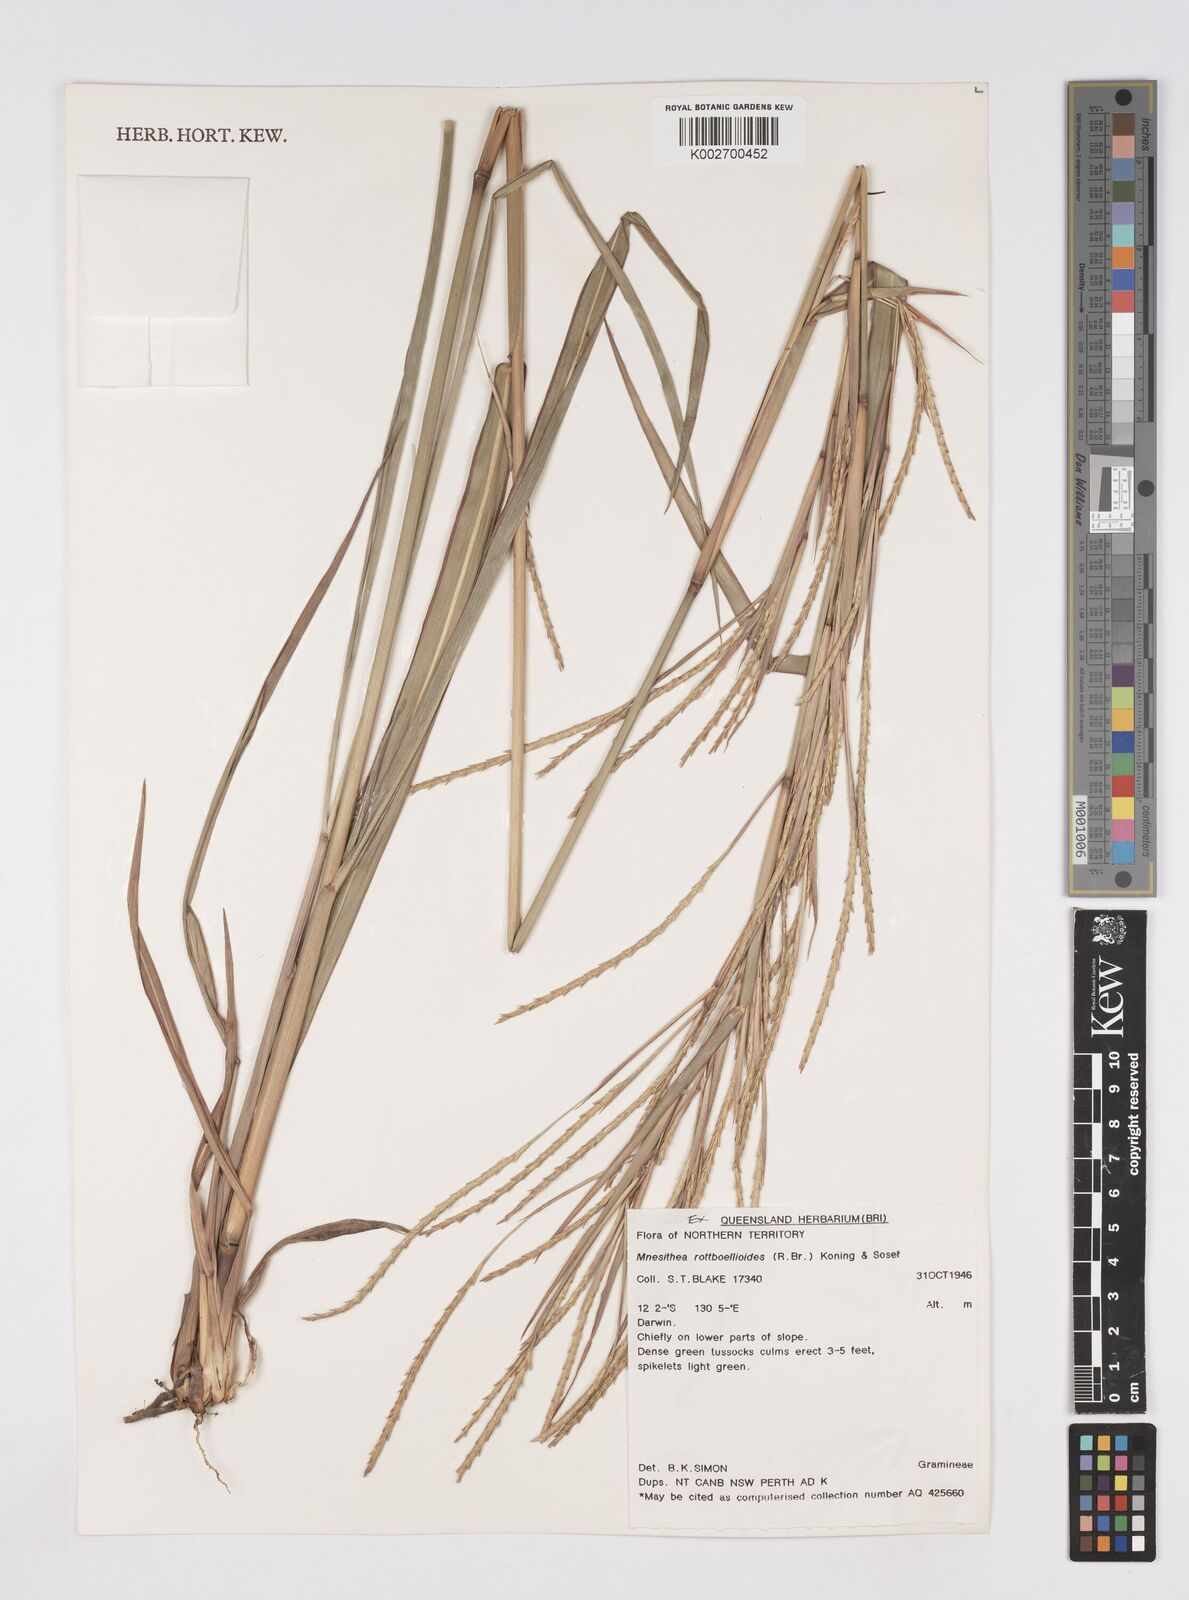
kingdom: Plantae
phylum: Tracheophyta
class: Liliopsida
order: Poales
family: Poaceae
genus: Rottboellia
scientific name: Rottboellia rottboellioides
